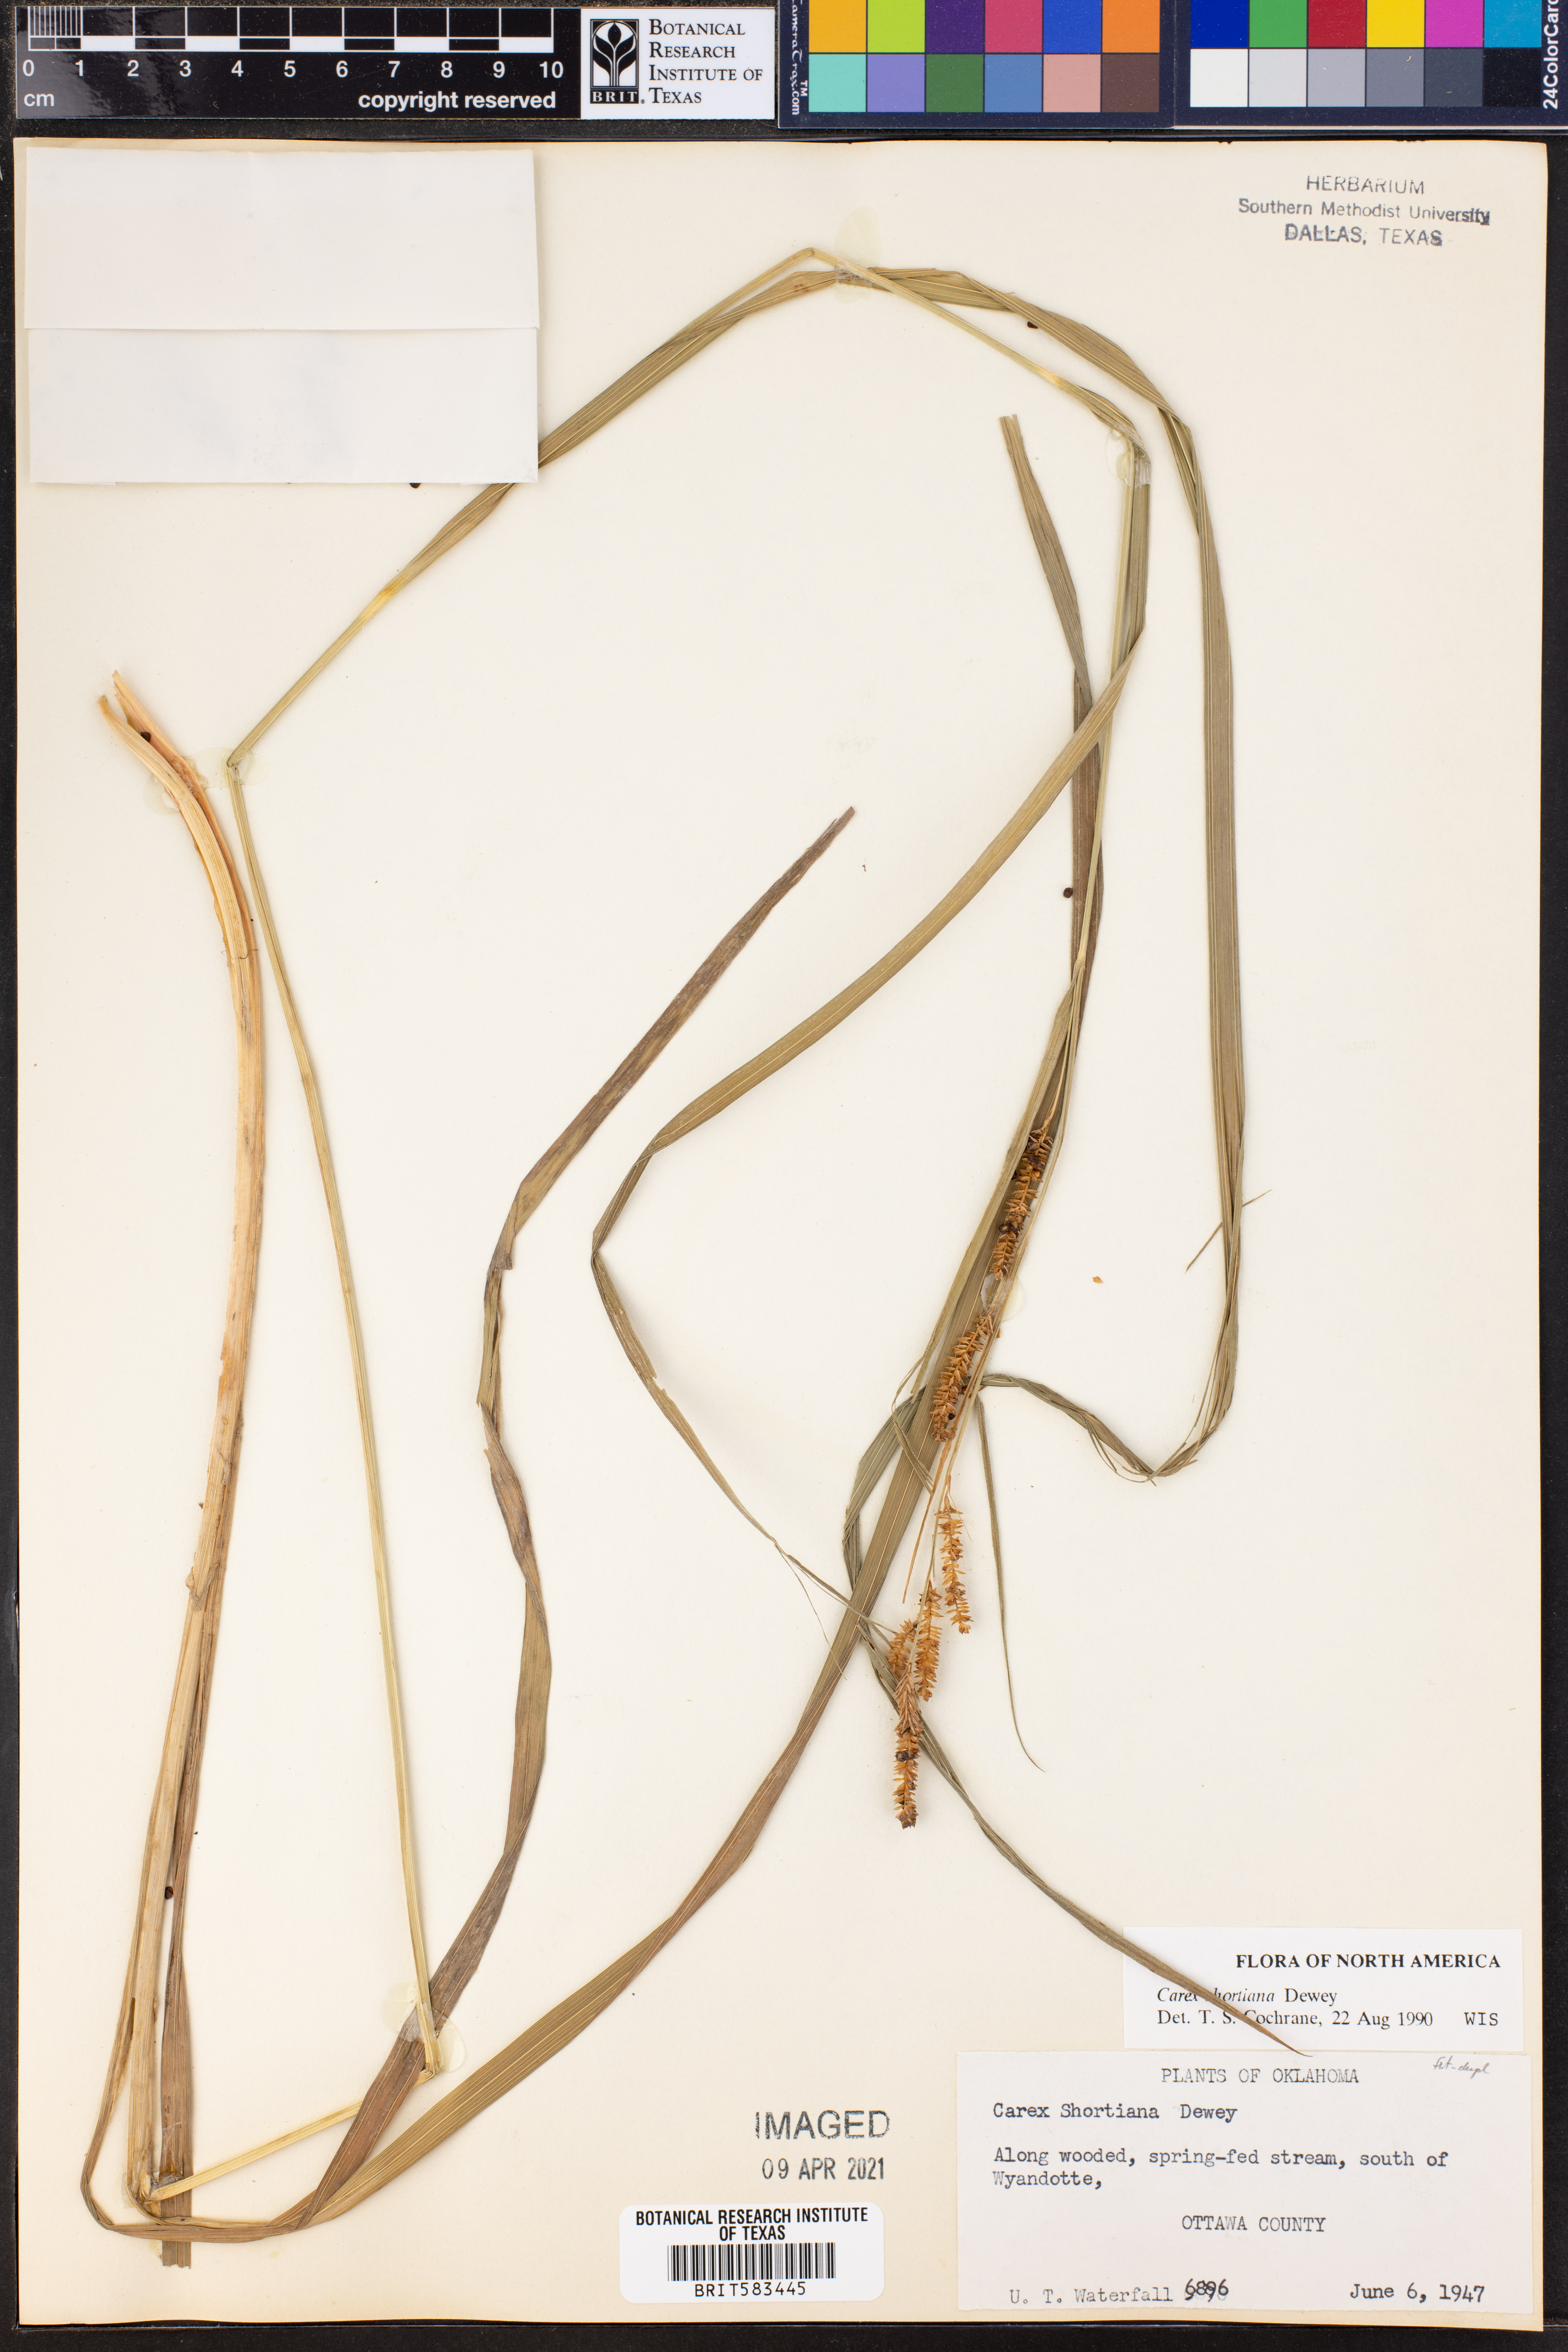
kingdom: Plantae
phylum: Tracheophyta
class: Liliopsida
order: Poales
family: Cyperaceae
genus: Carex
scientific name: Carex shortiana
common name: Short's sedge
